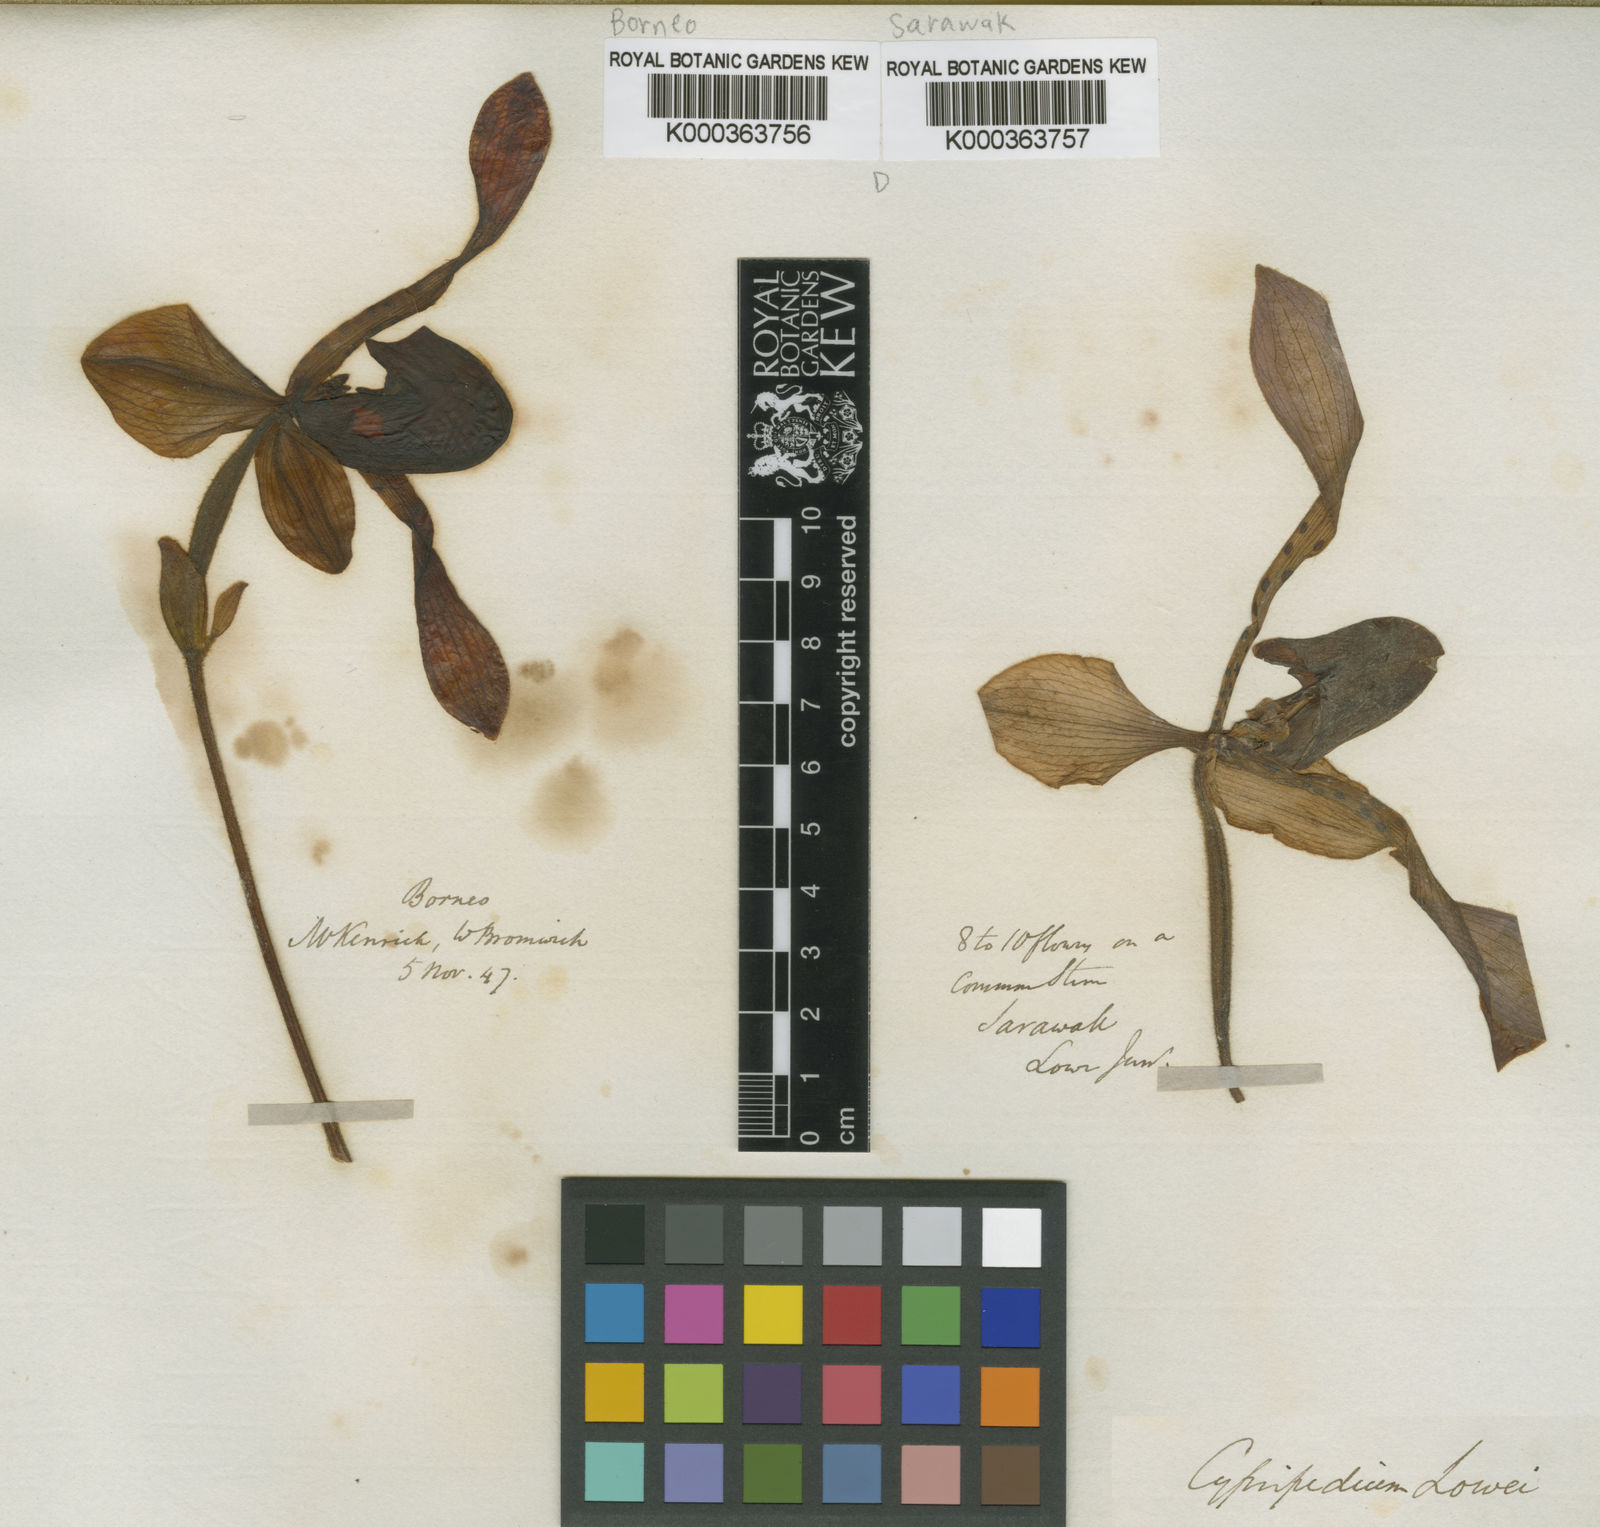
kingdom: Plantae
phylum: Tracheophyta
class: Liliopsida
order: Asparagales
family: Orchidaceae
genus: Paphiopedilum
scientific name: Paphiopedilum lowii
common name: Low's paphiopedilum
